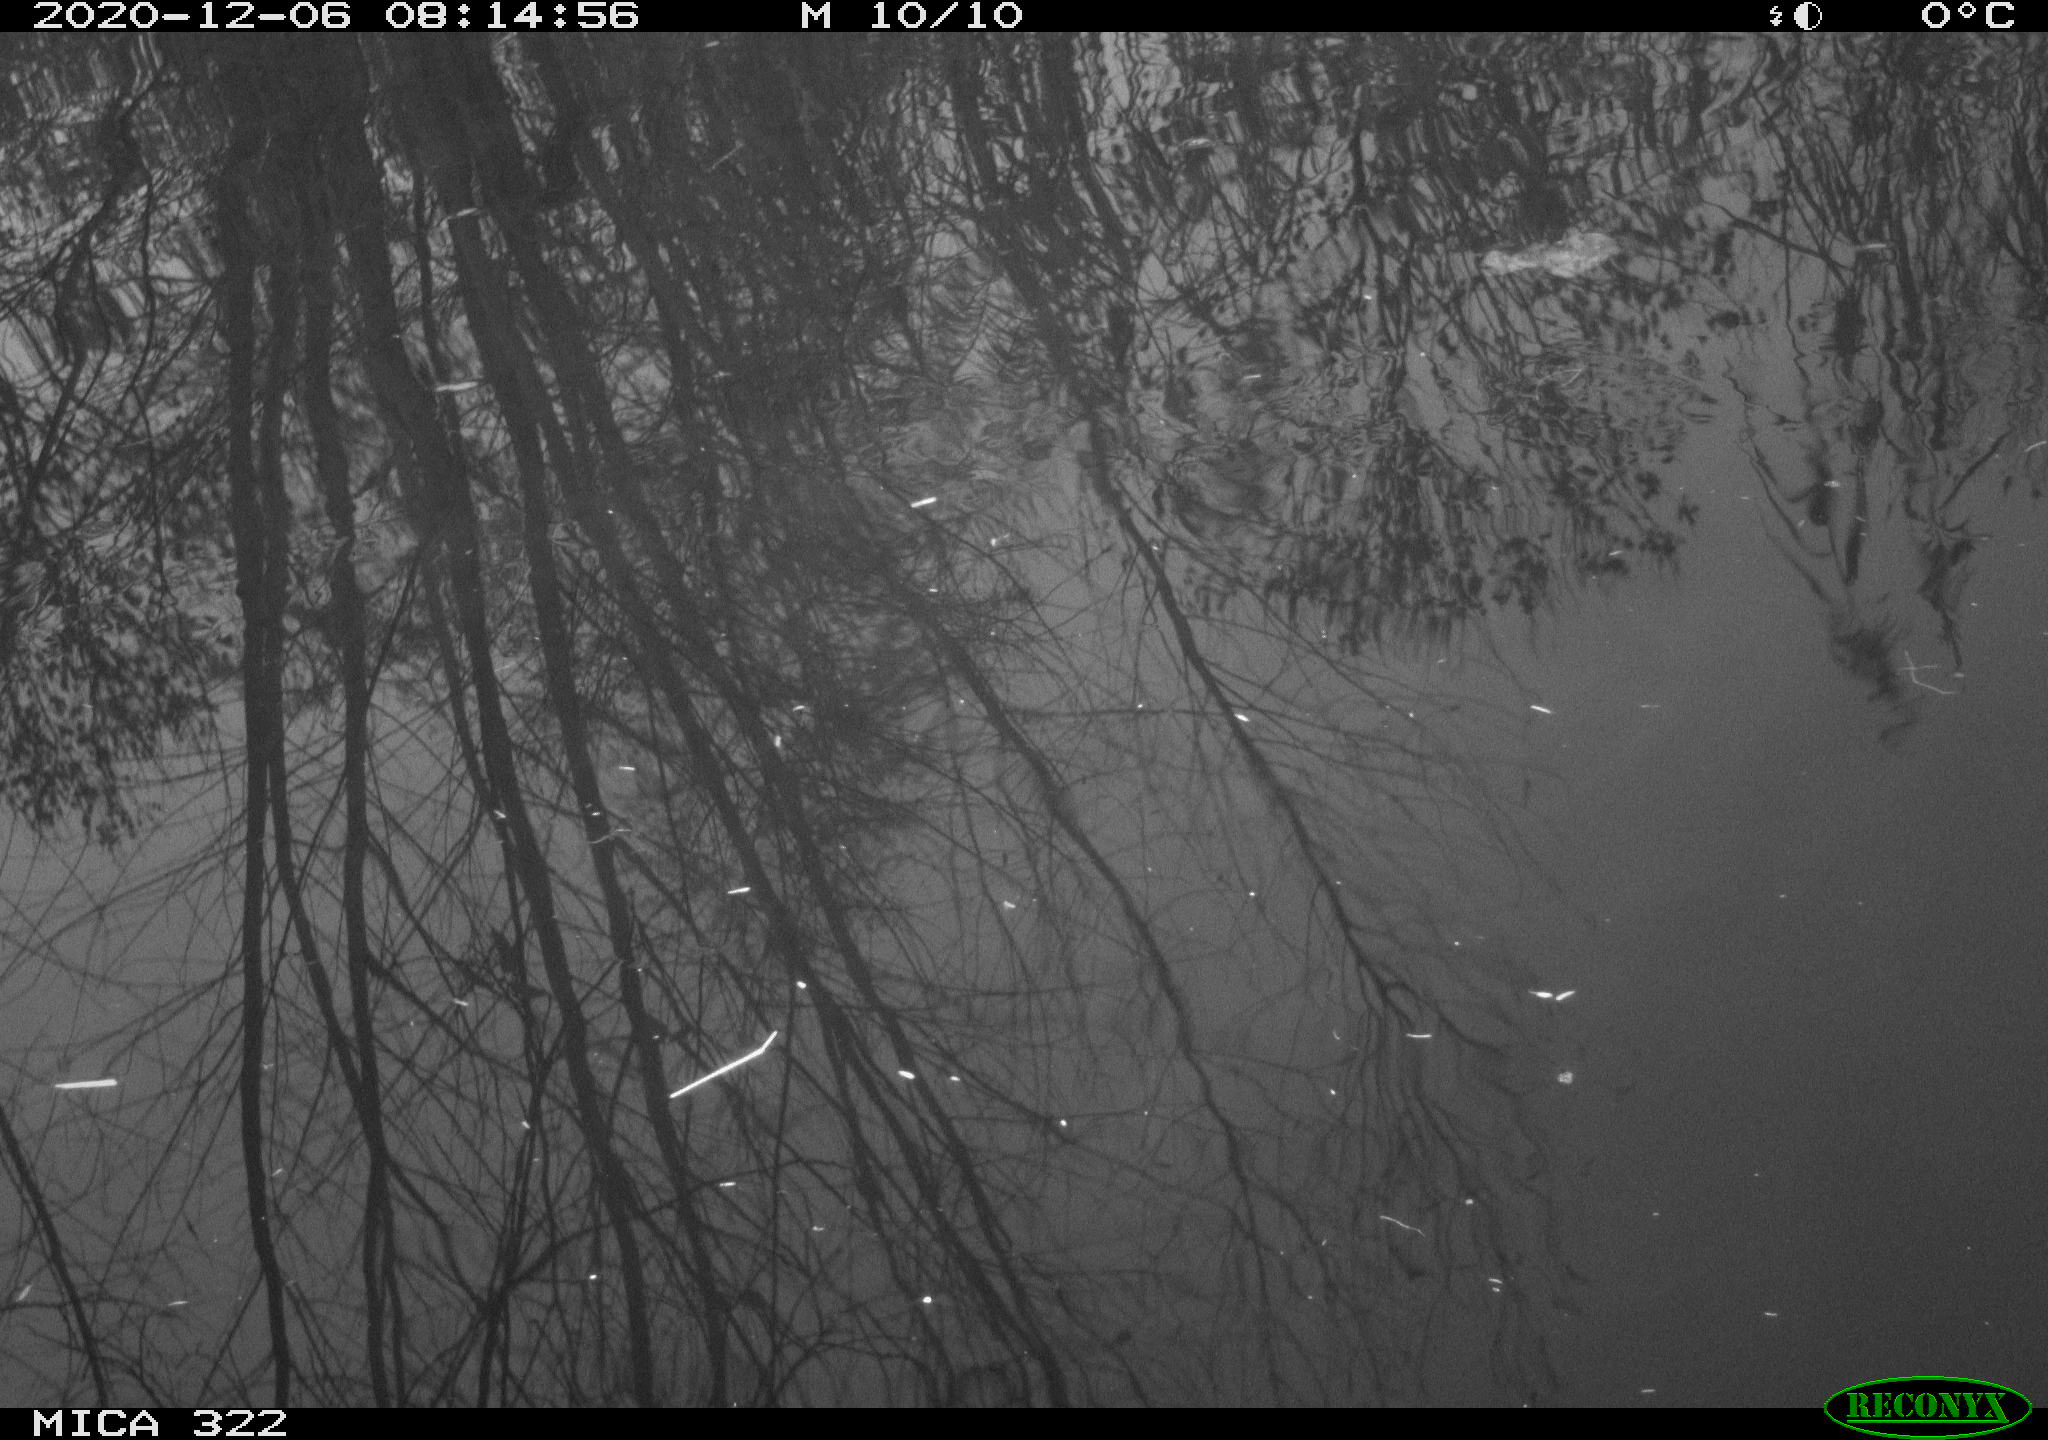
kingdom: Animalia
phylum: Chordata
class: Aves
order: Gruiformes
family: Rallidae
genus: Fulica
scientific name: Fulica atra
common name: Eurasian coot
